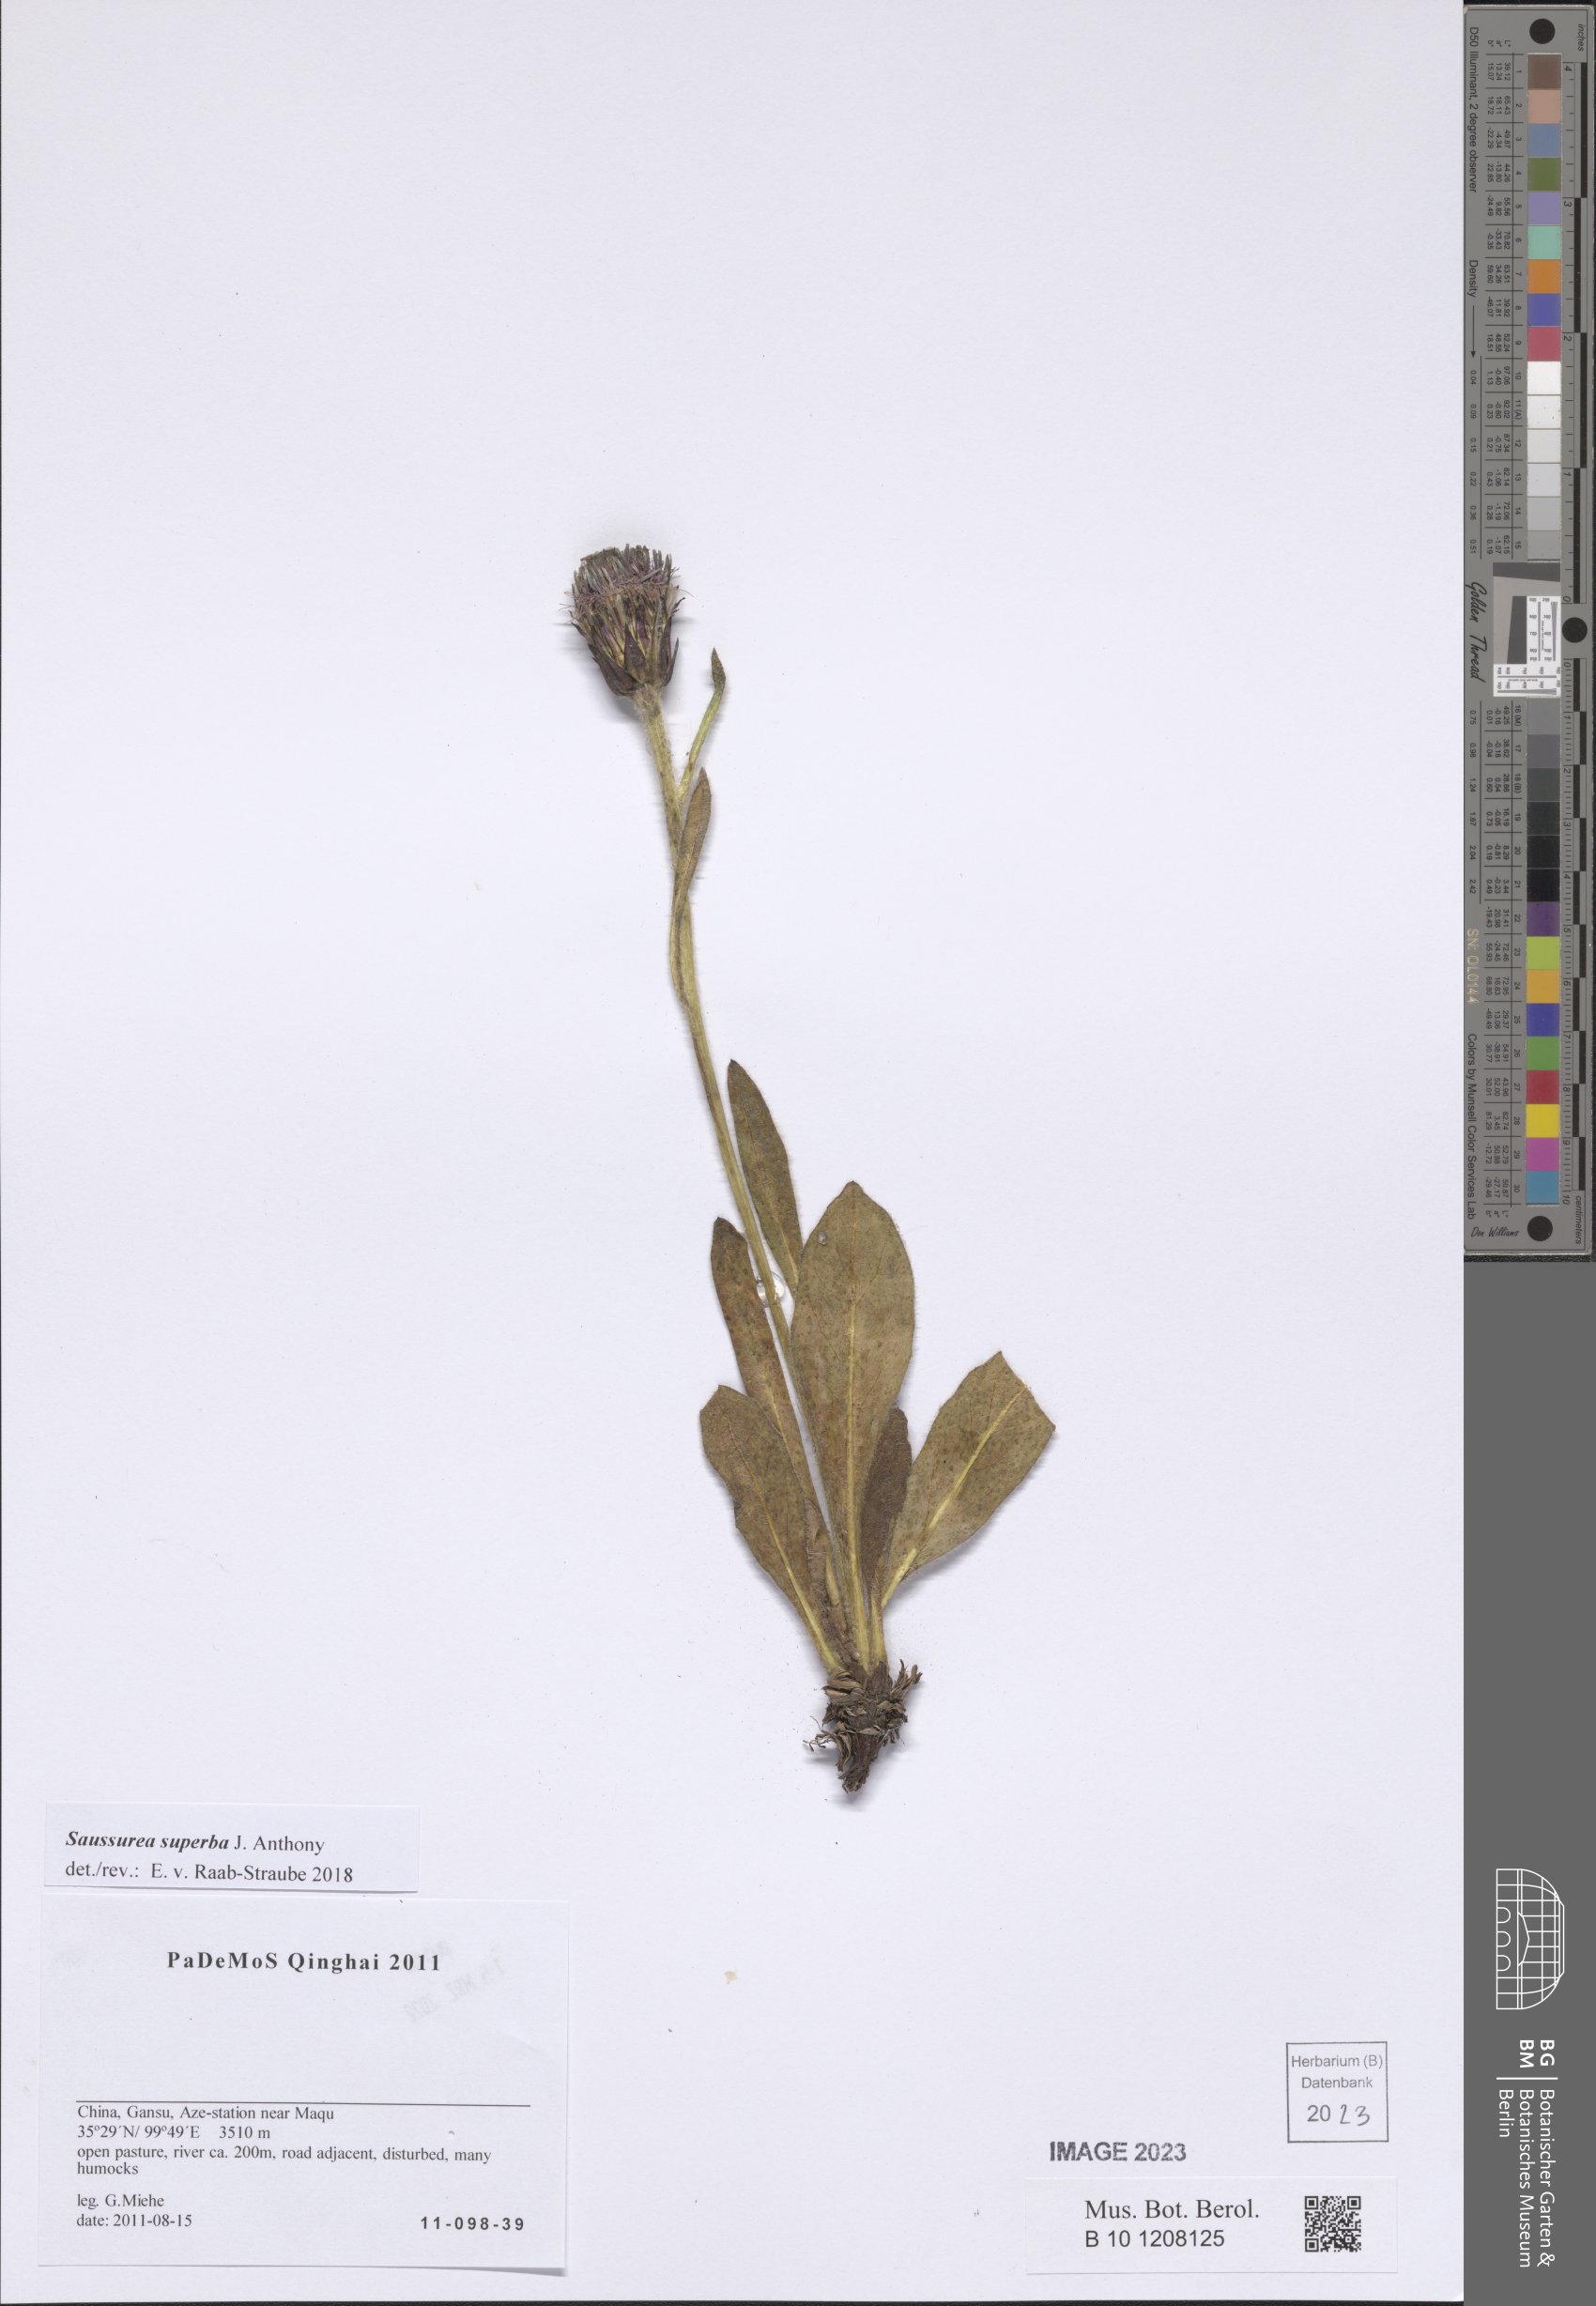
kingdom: Plantae
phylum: Tracheophyta
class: Magnoliopsida
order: Asterales
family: Asteraceae
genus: Saussurea
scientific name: Saussurea superba
